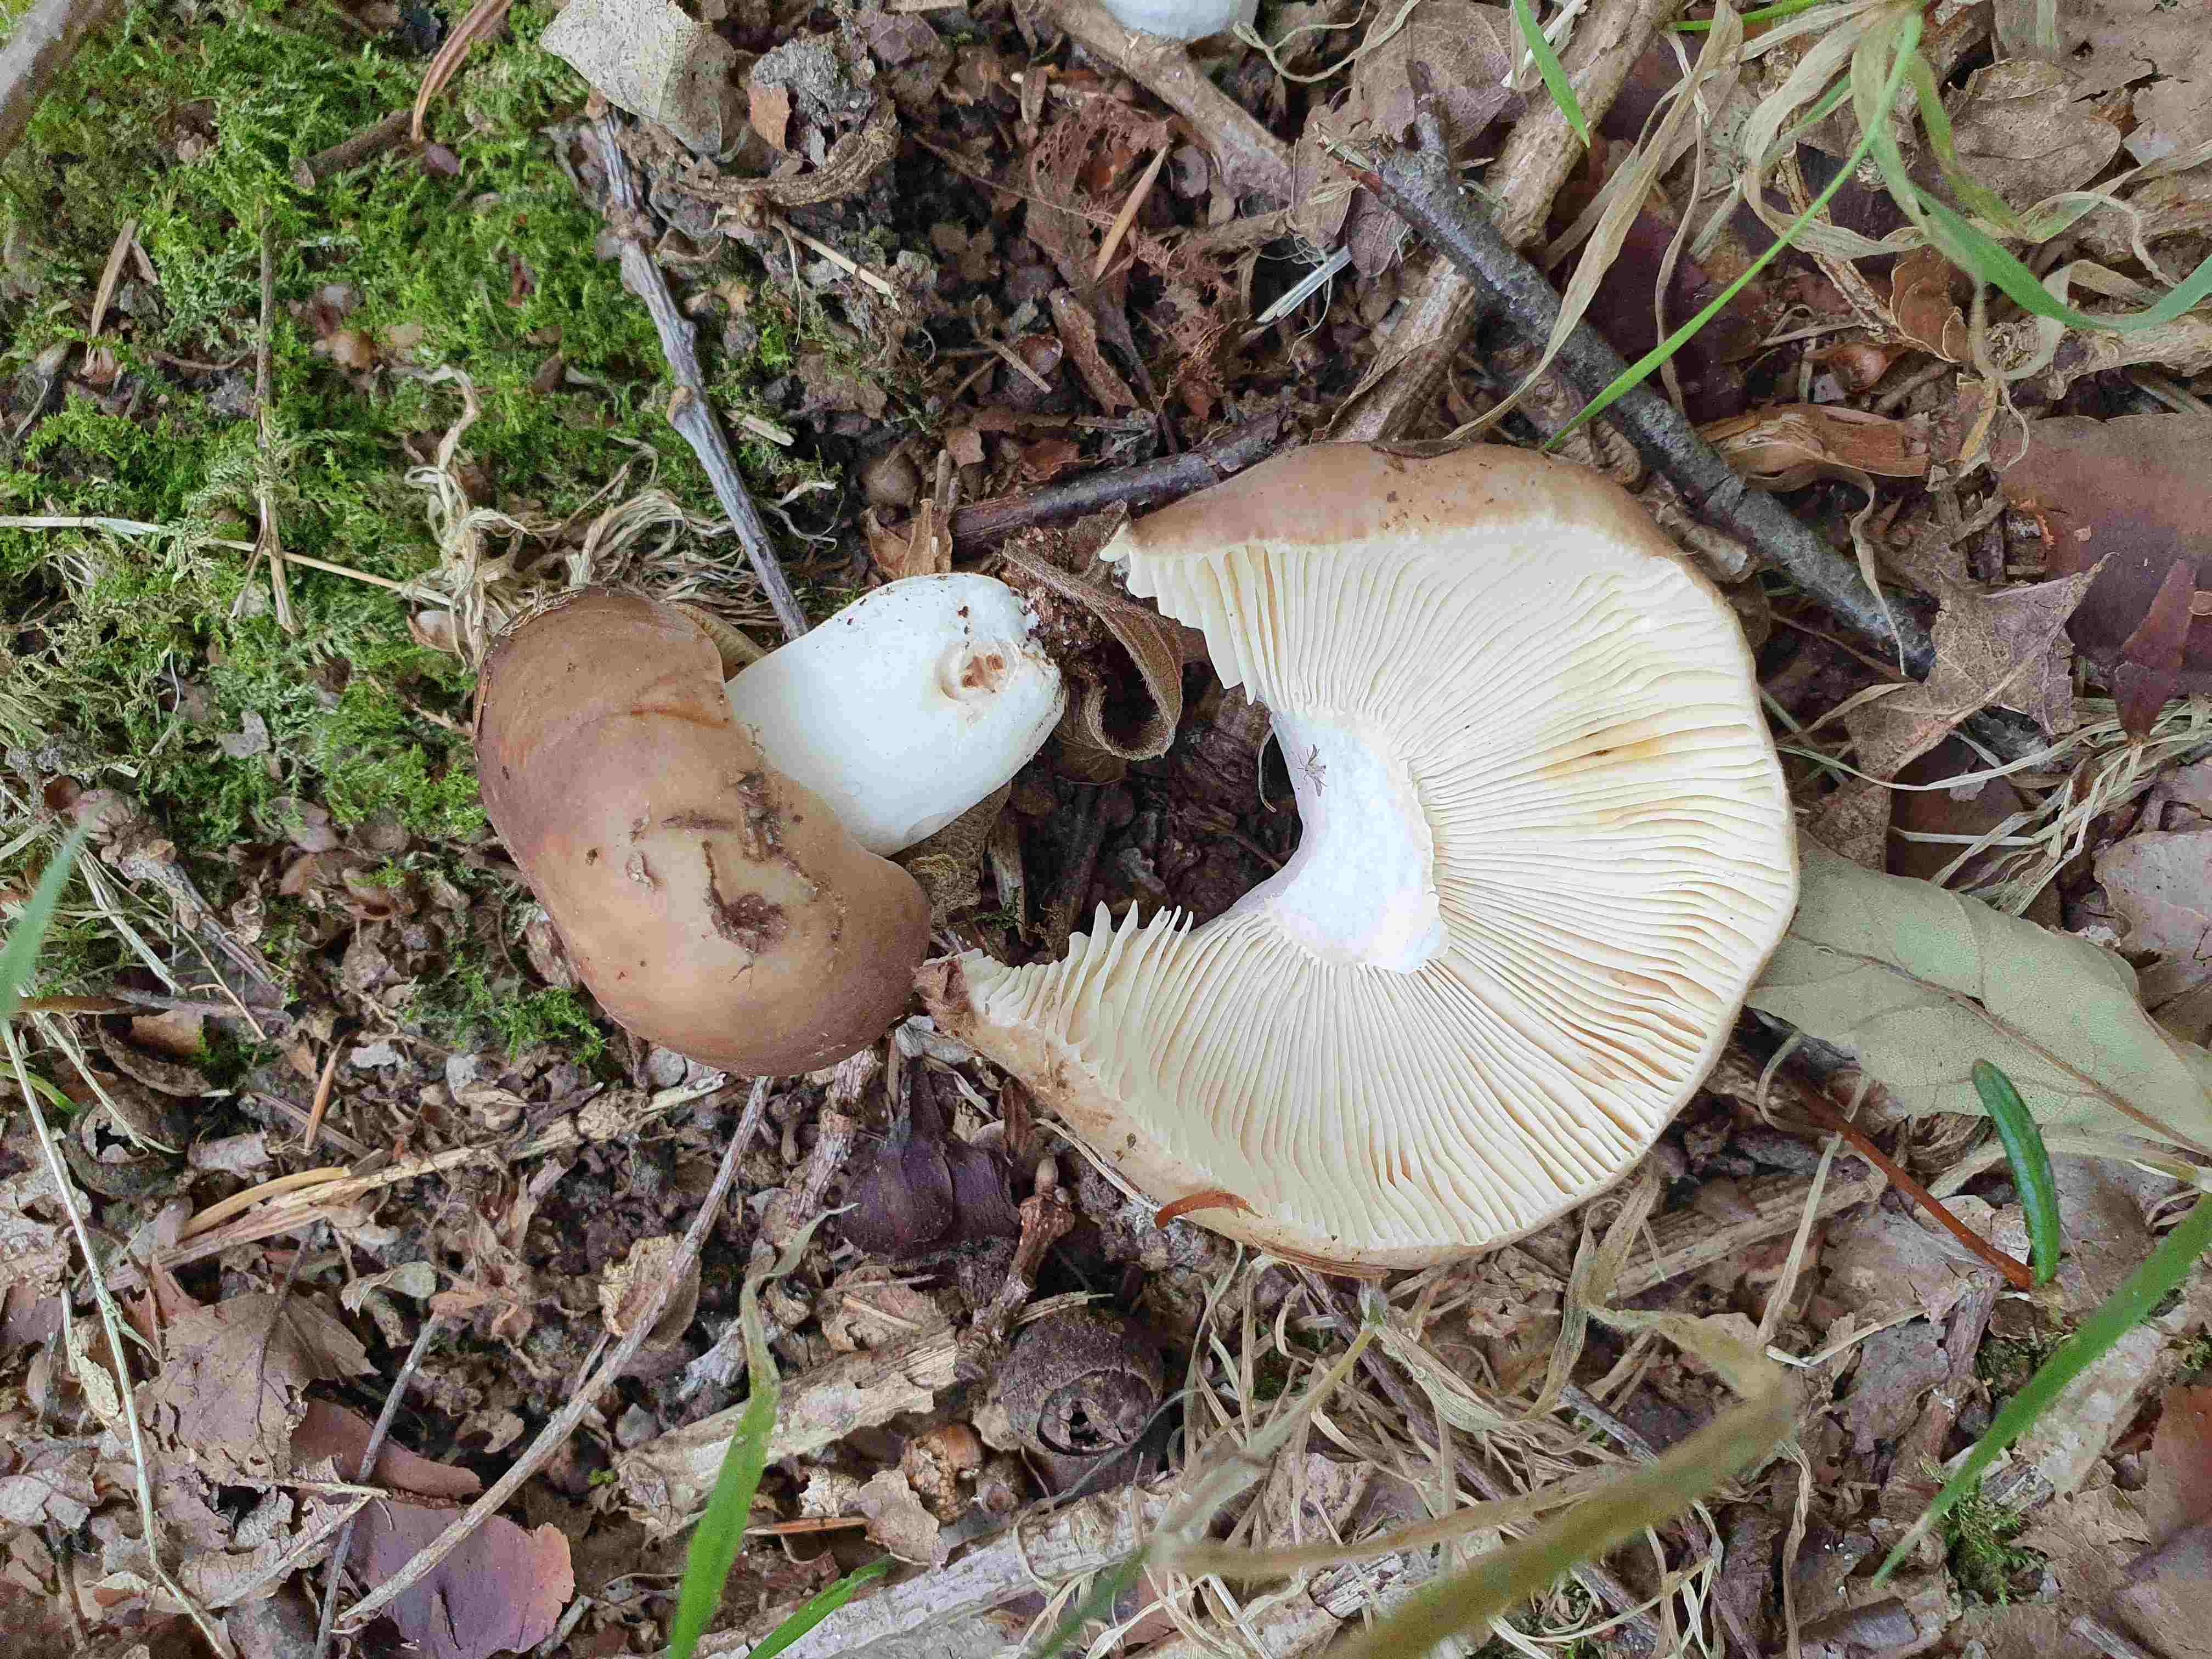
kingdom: Fungi
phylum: Basidiomycota
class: Agaricomycetes
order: Russulales
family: Russulaceae
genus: Russula
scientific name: Russula cyanoxantha
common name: broget skørhat
